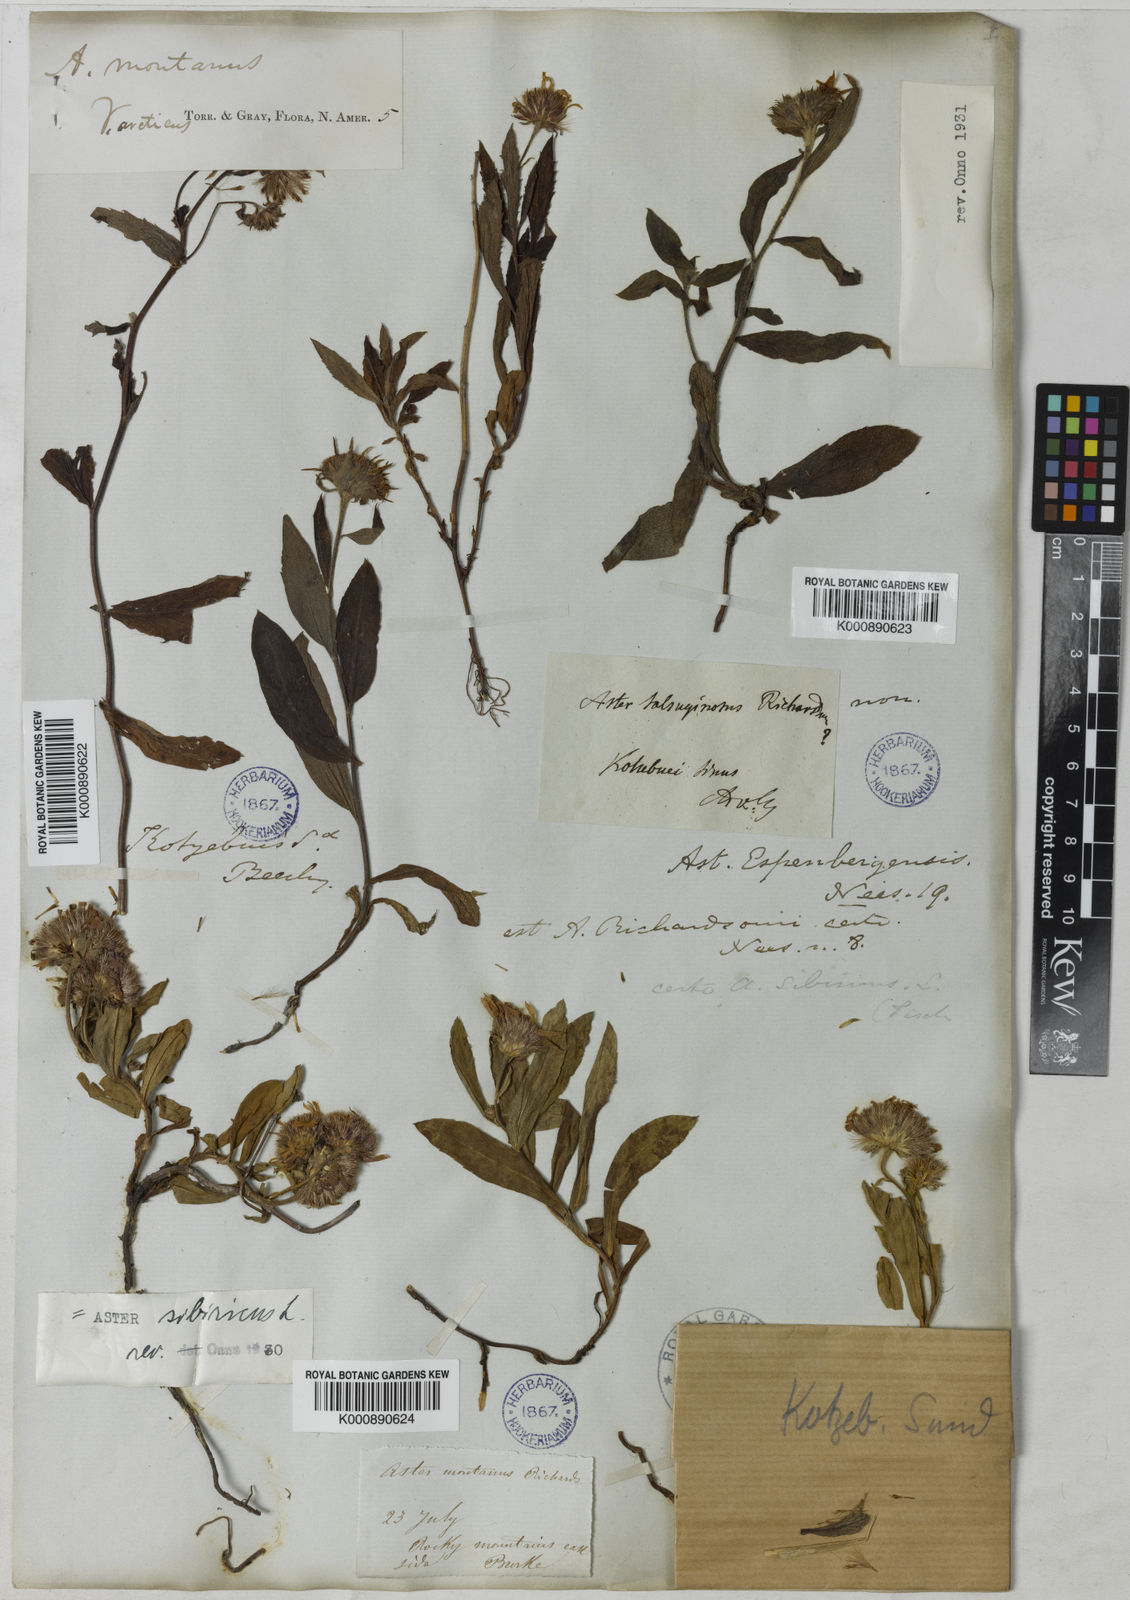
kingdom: Plantae
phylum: Tracheophyta
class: Magnoliopsida
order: Asterales
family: Asteraceae
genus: Eurybia
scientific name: Eurybia sibirica
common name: Arctic aster
